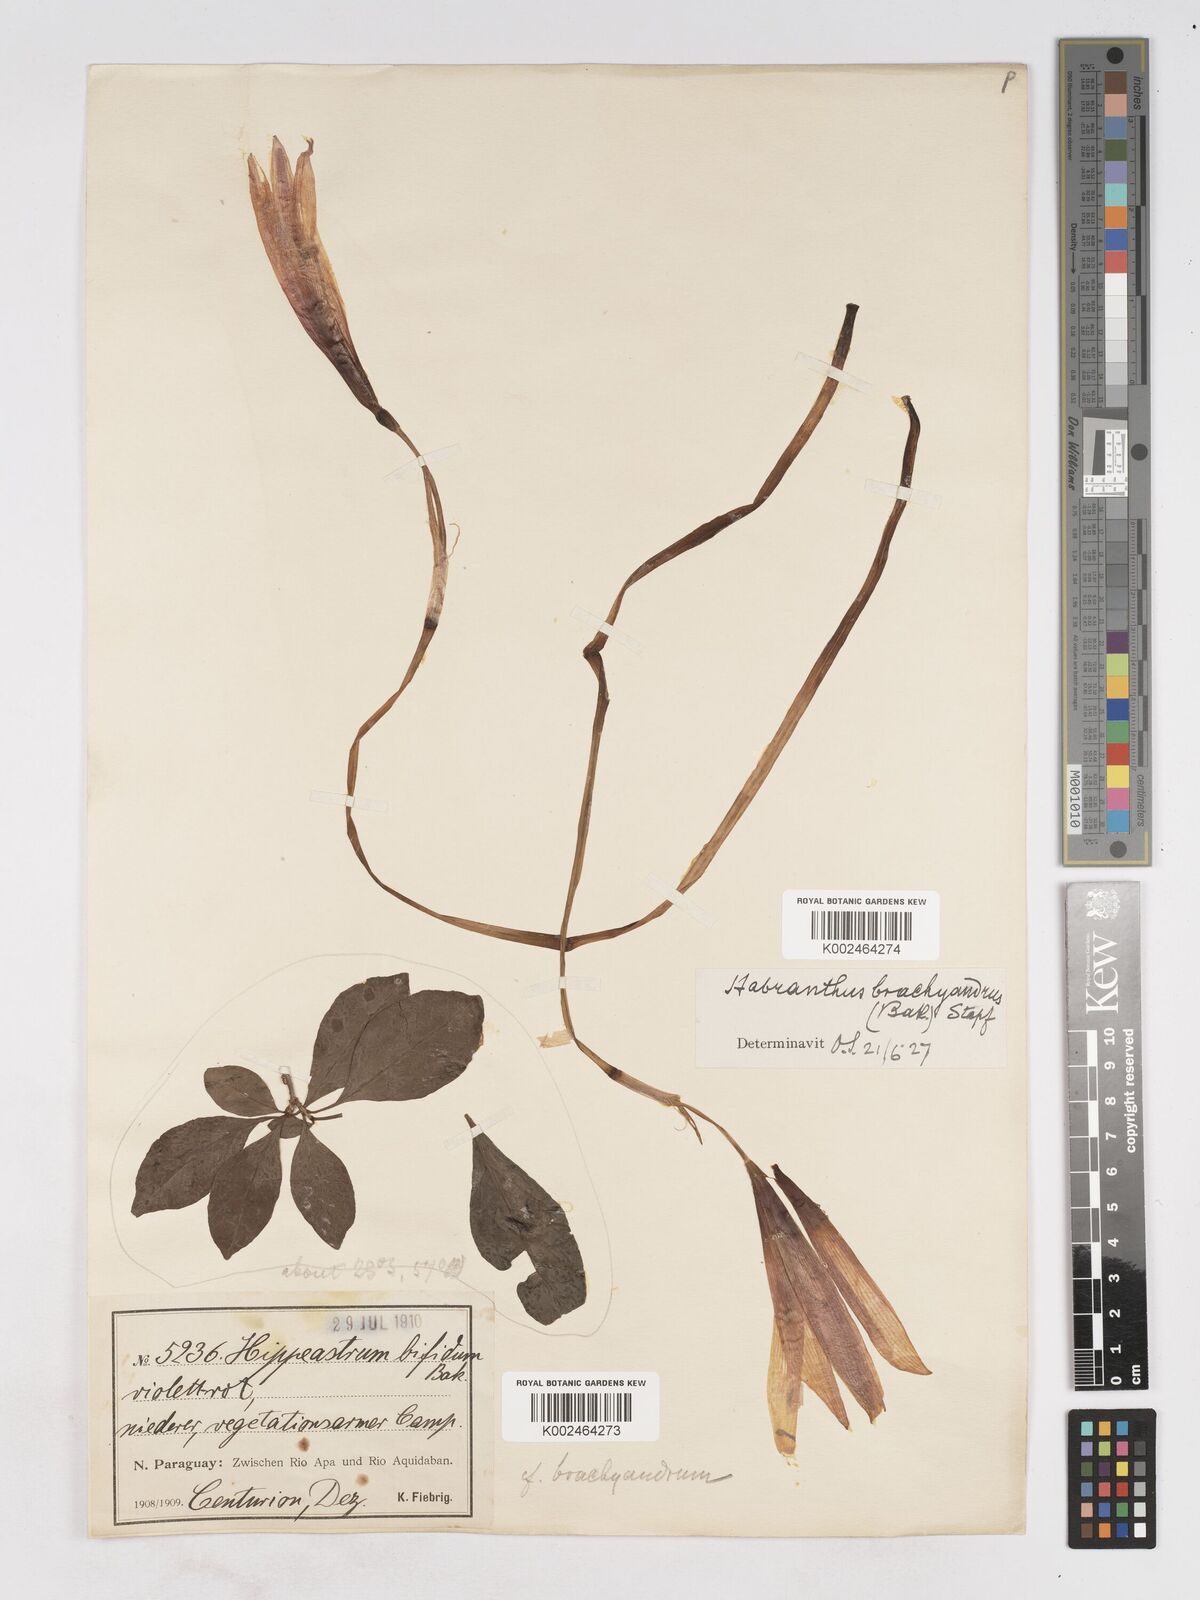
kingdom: Plantae
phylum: Tracheophyta
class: Liliopsida
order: Asparagales
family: Amaryllidaceae
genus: Zephyranthes
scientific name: Zephyranthes brachyandra
